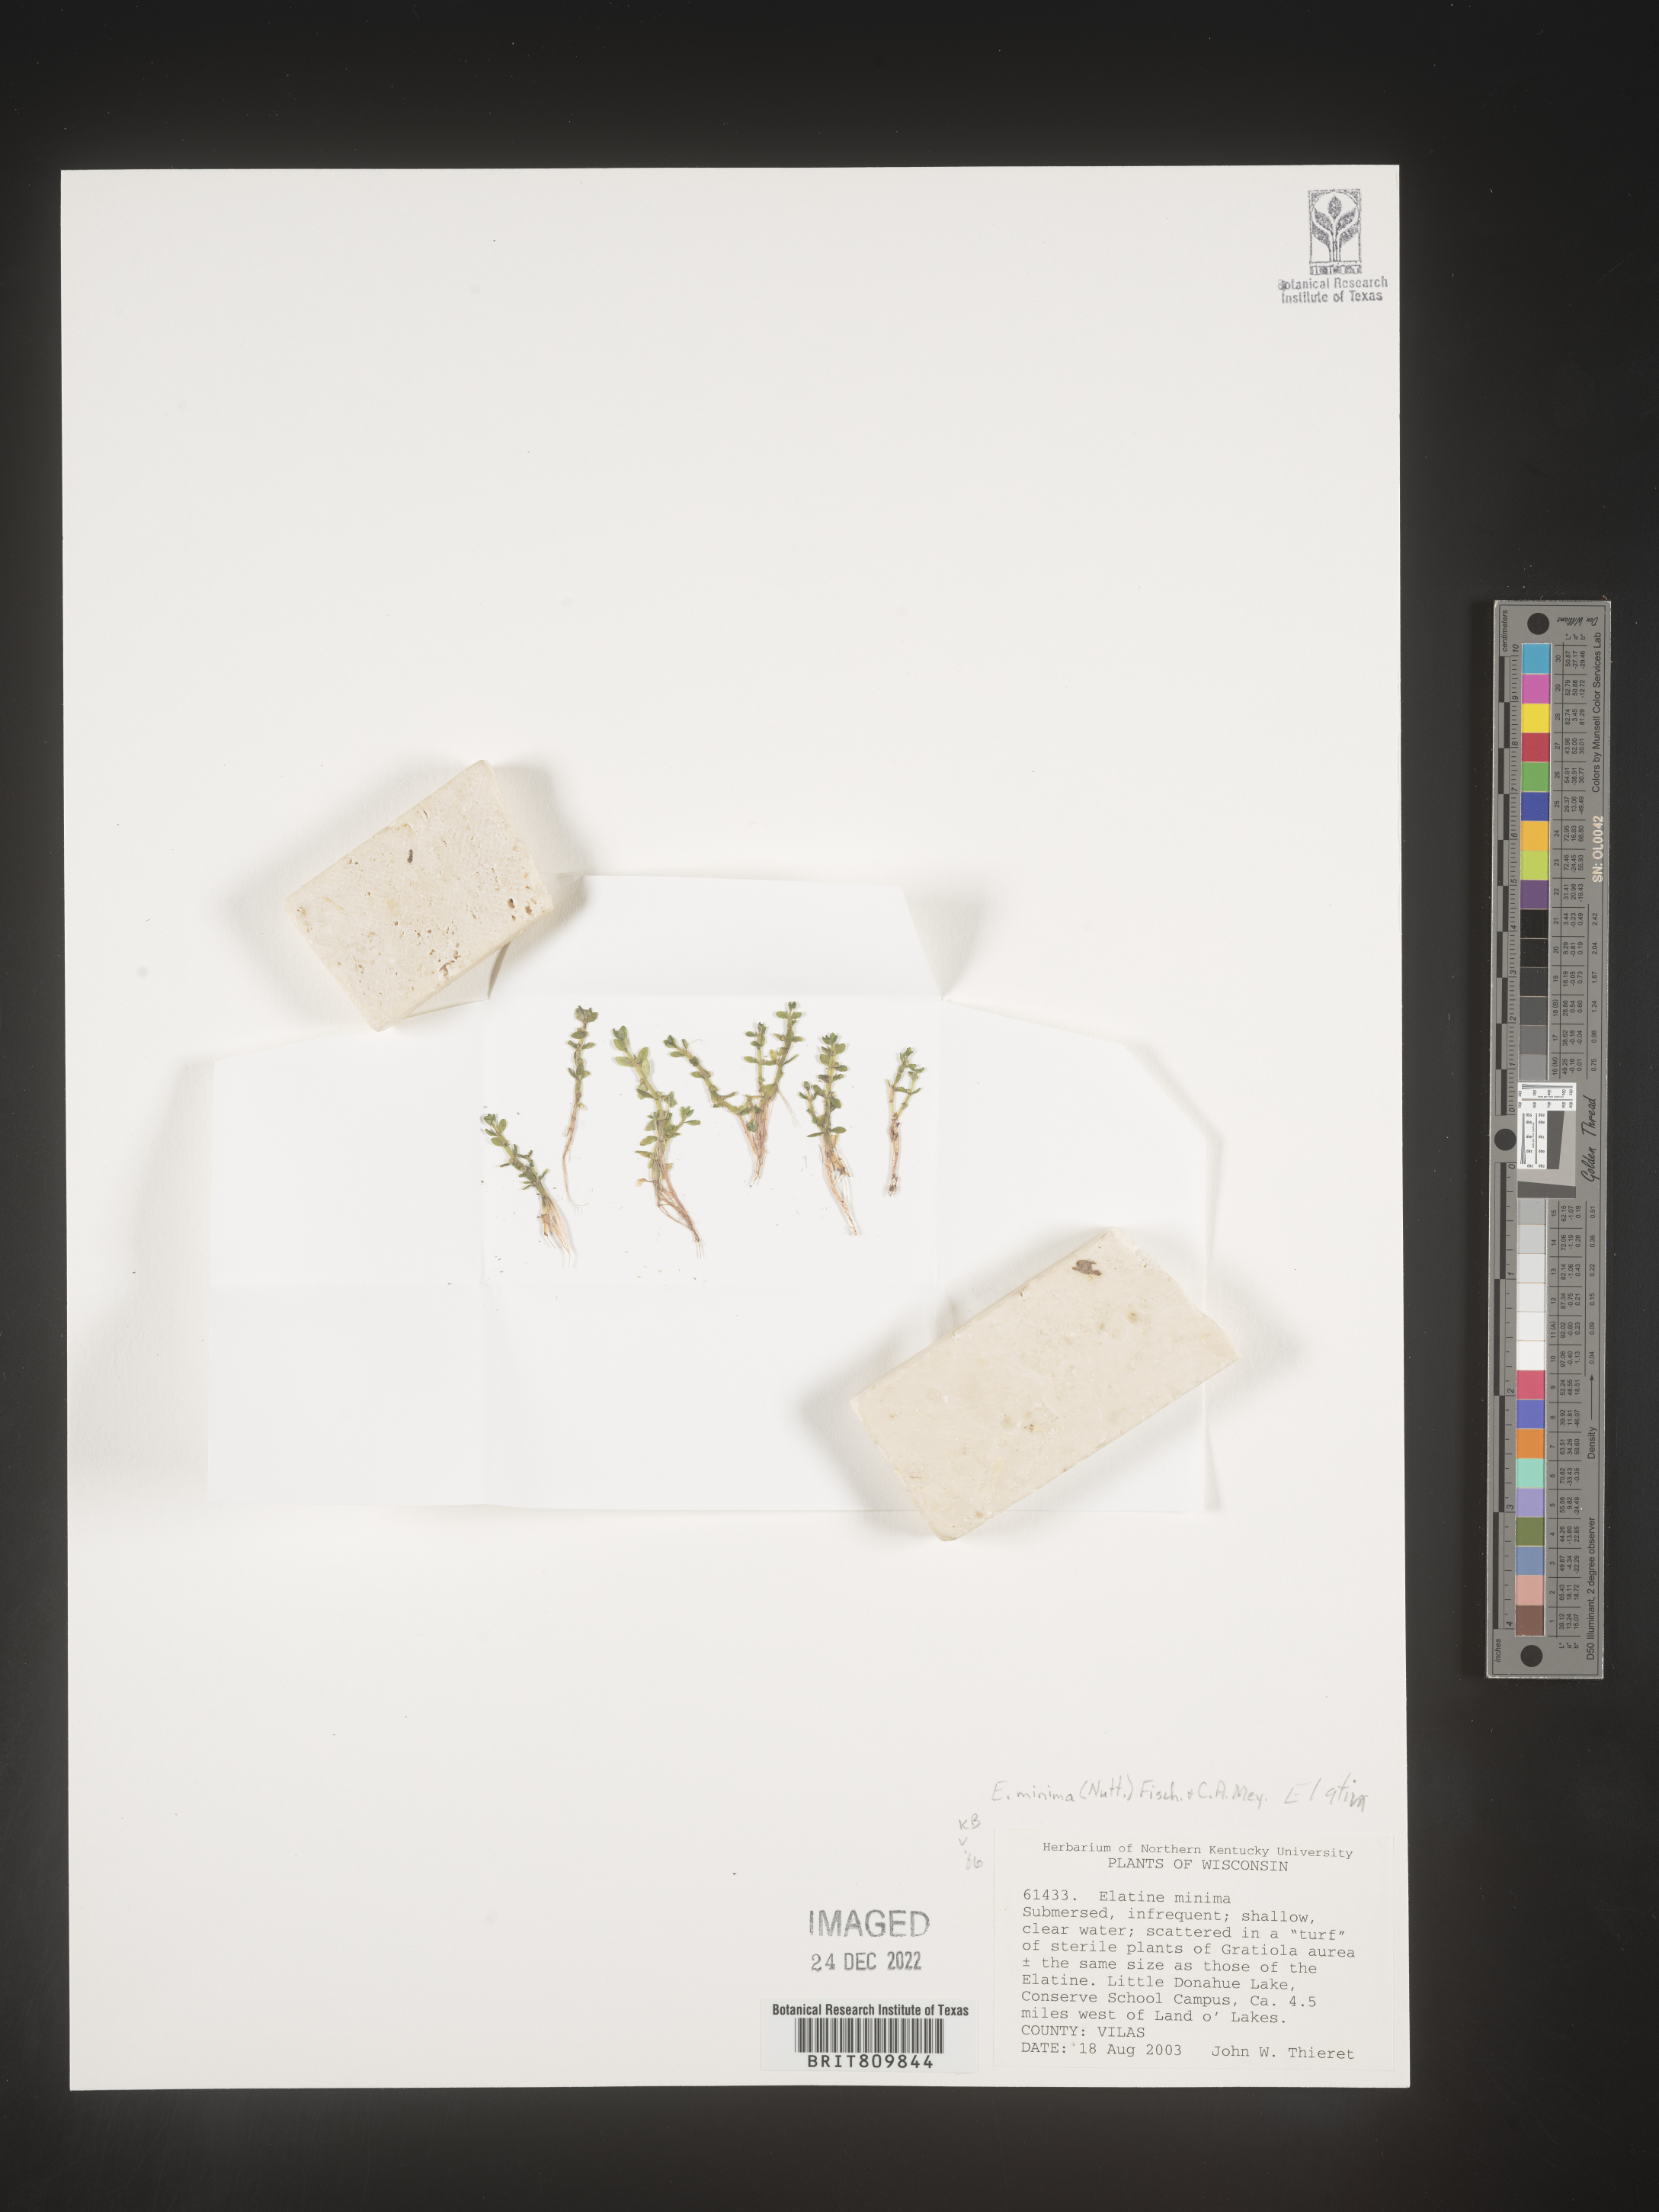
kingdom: Plantae
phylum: Tracheophyta
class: Magnoliopsida
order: Malpighiales
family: Elatinaceae
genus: Elatine
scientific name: Elatine
